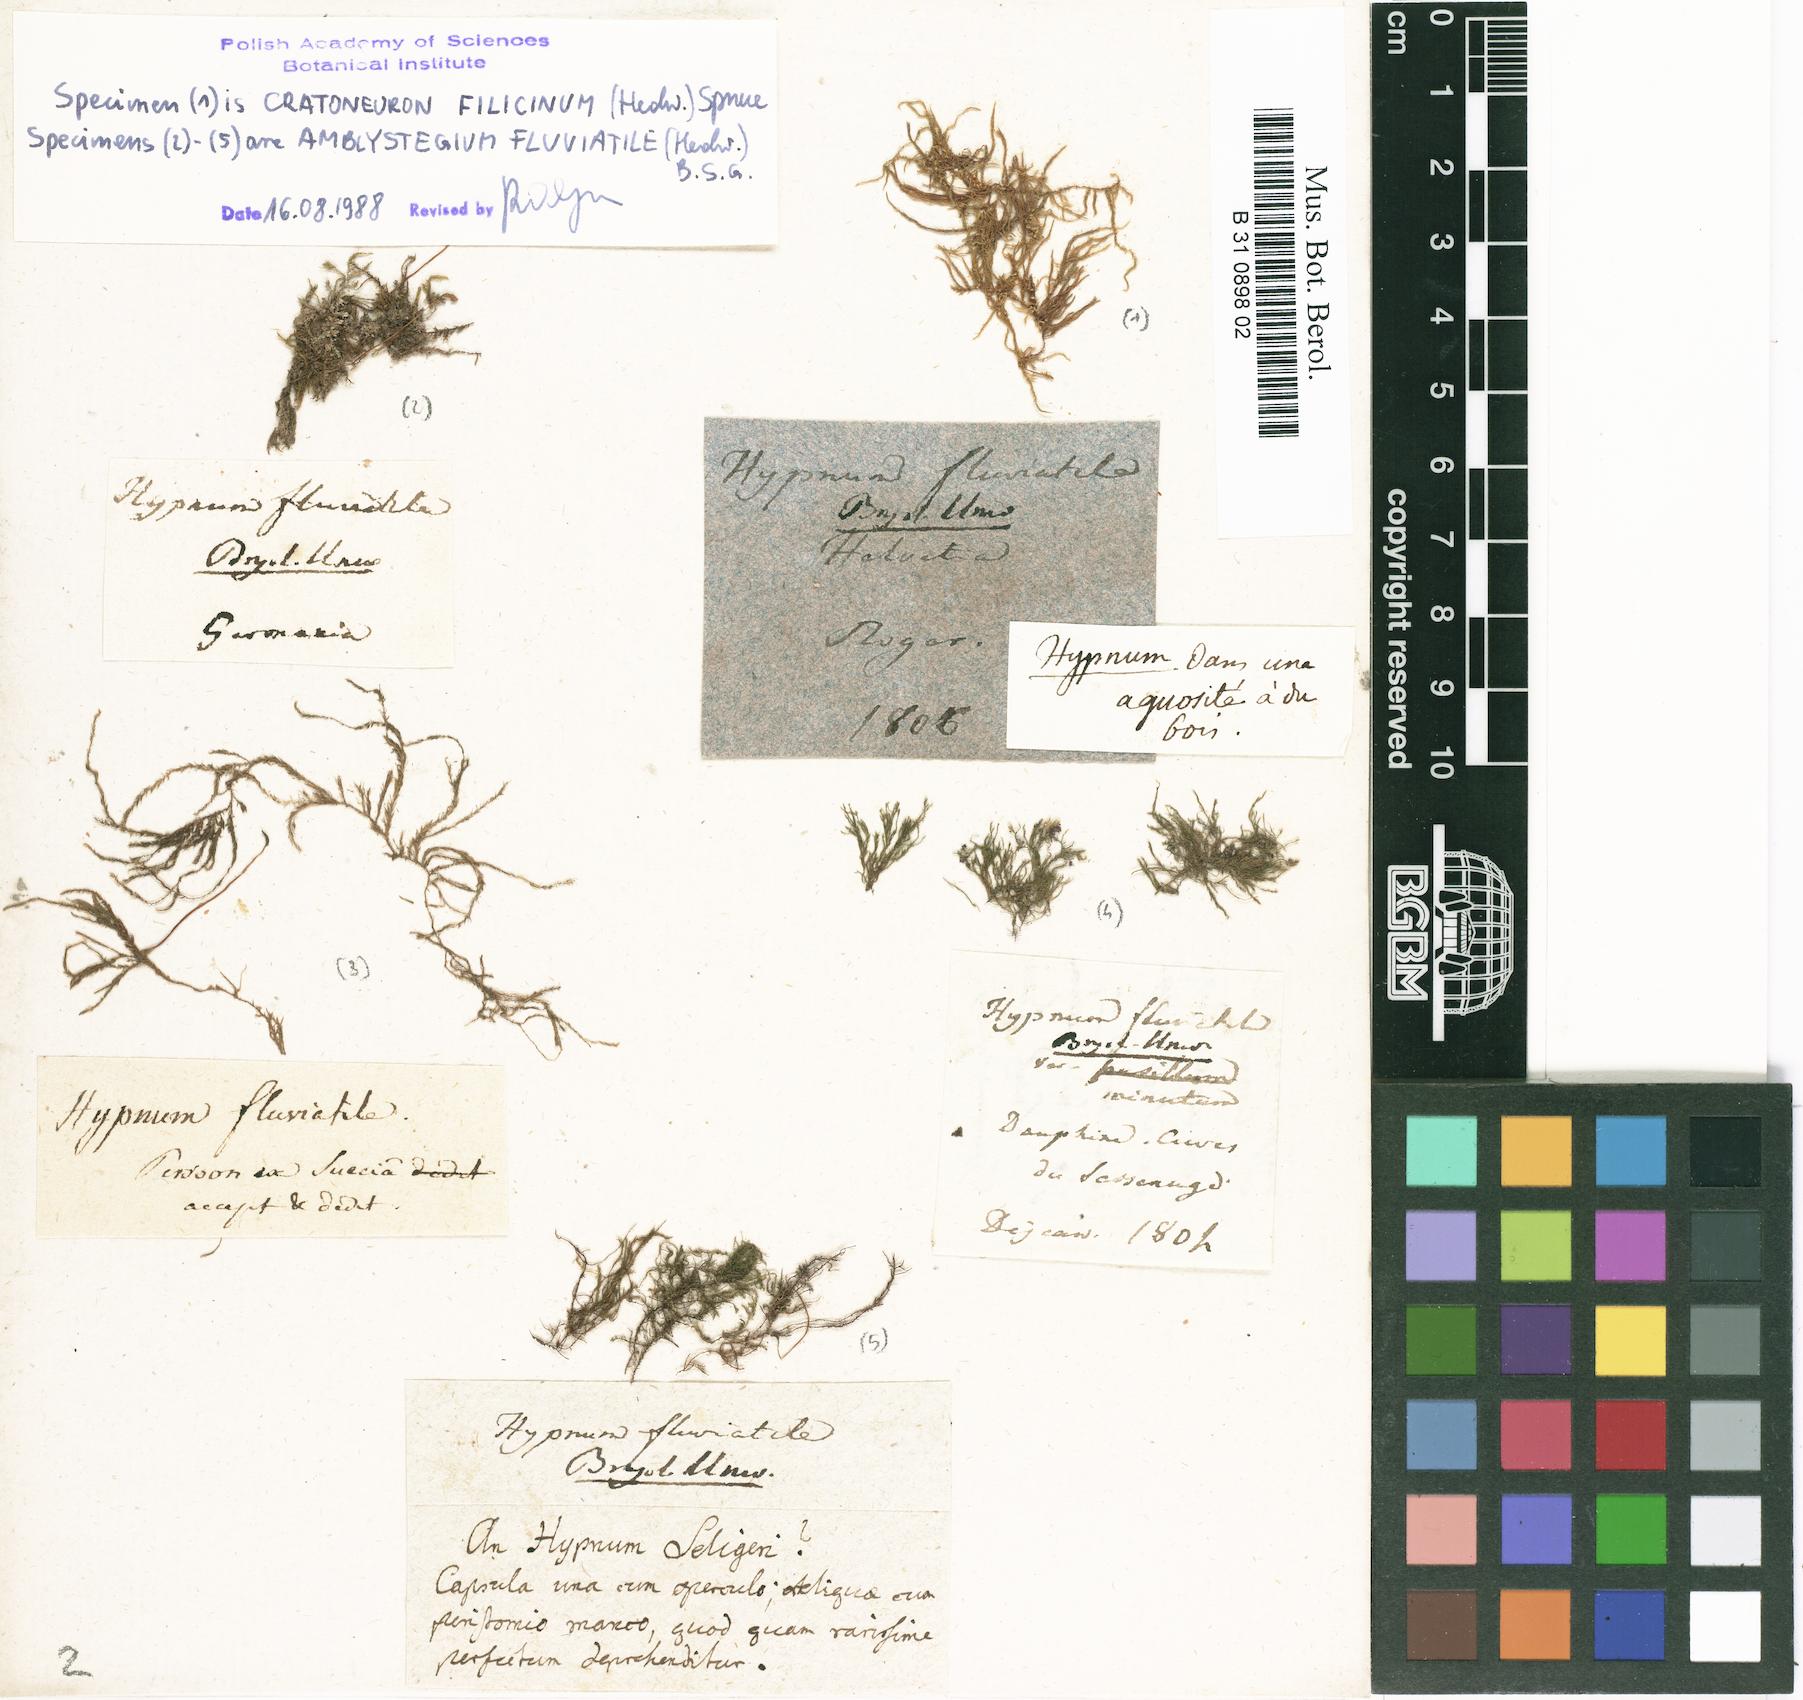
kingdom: Plantae
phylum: Bryophyta
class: Bryopsida
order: Hypnales
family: Amblystegiaceae
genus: Hygroamblystegium
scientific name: Hygroamblystegium fluviatile
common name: Brook-side feather-moss
